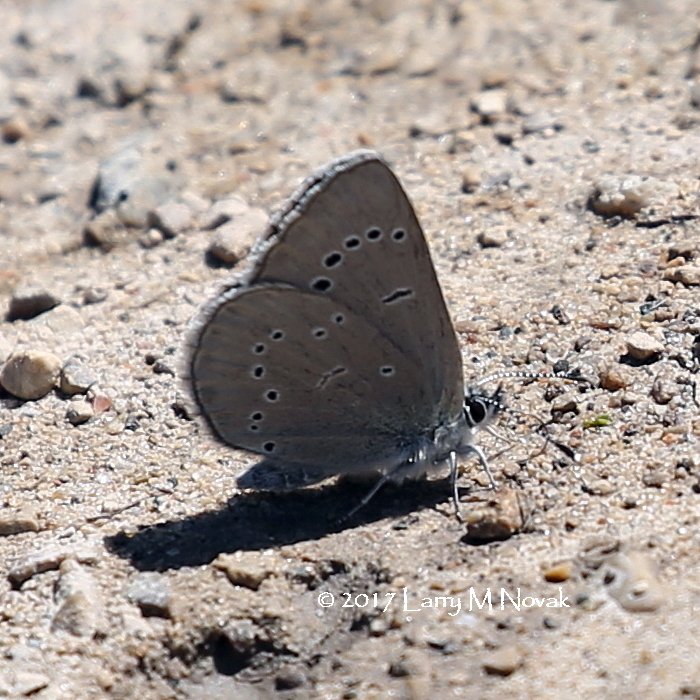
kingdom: Animalia
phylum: Arthropoda
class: Insecta
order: Lepidoptera
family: Lycaenidae
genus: Glaucopsyche
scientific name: Glaucopsyche lygdamus
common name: Silvery Blue
